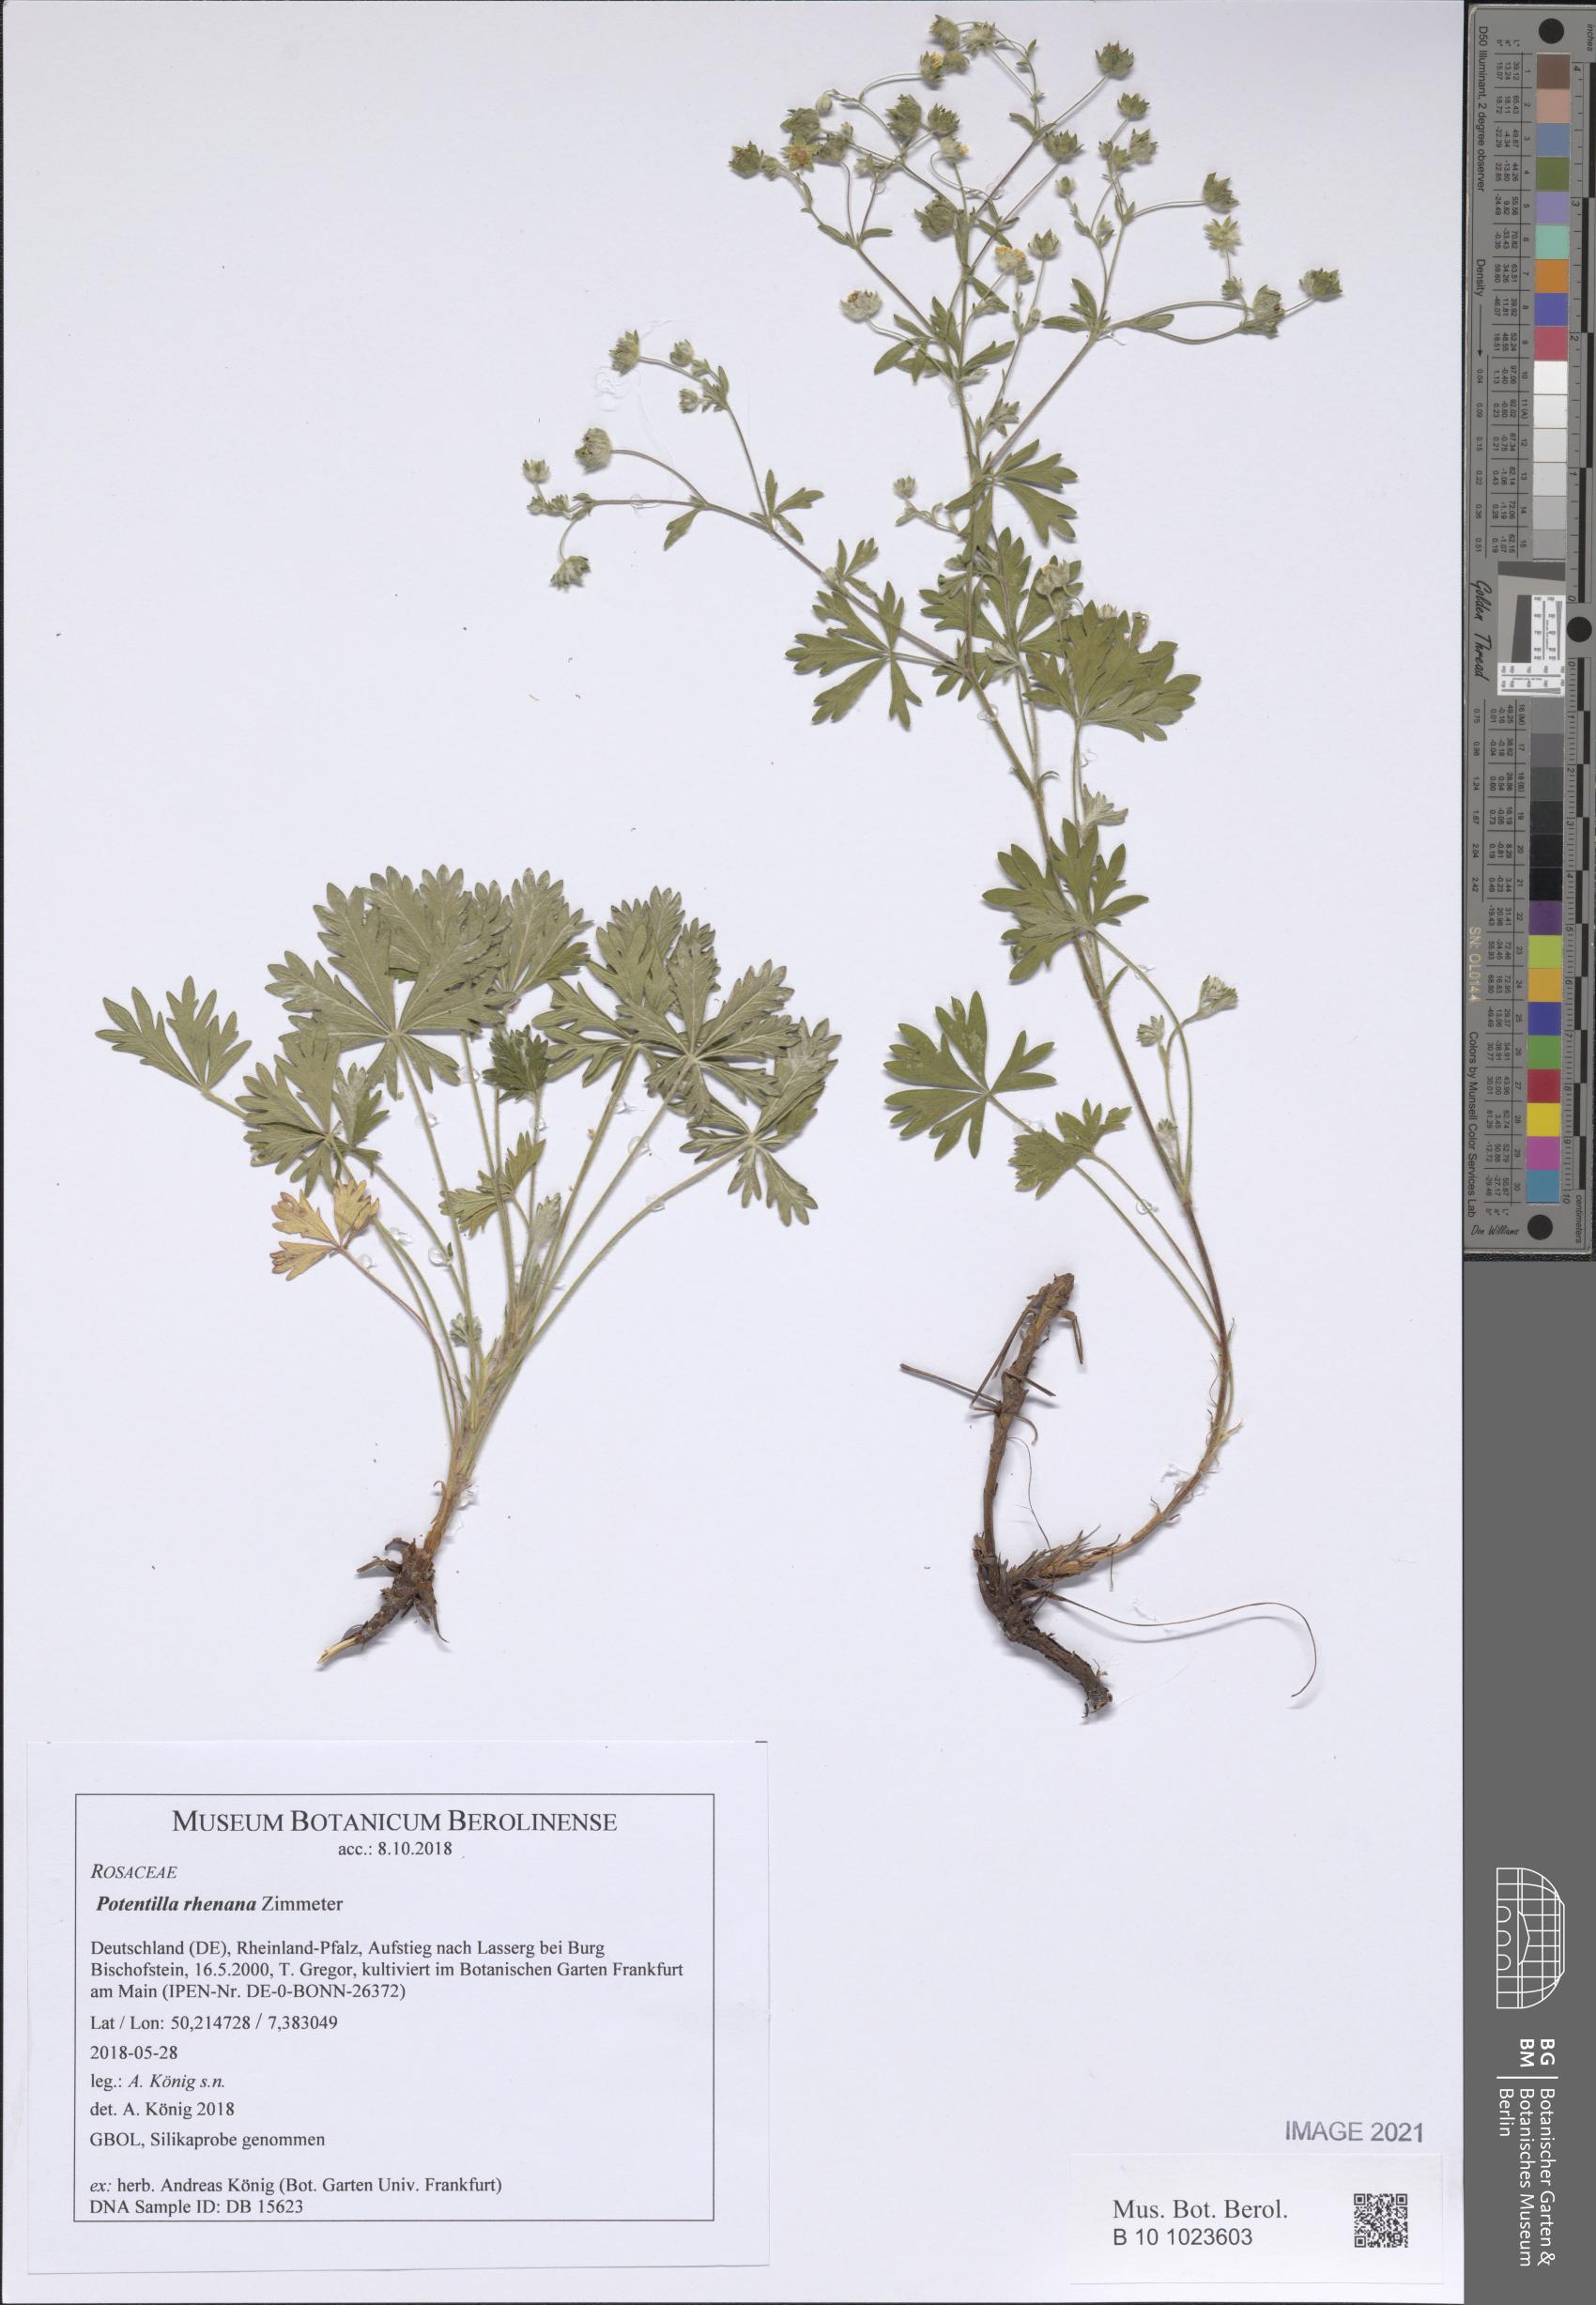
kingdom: Plantae
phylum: Tracheophyta
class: Magnoliopsida
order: Rosales
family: Rosaceae
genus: Potentilla
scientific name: Potentilla rhenana
